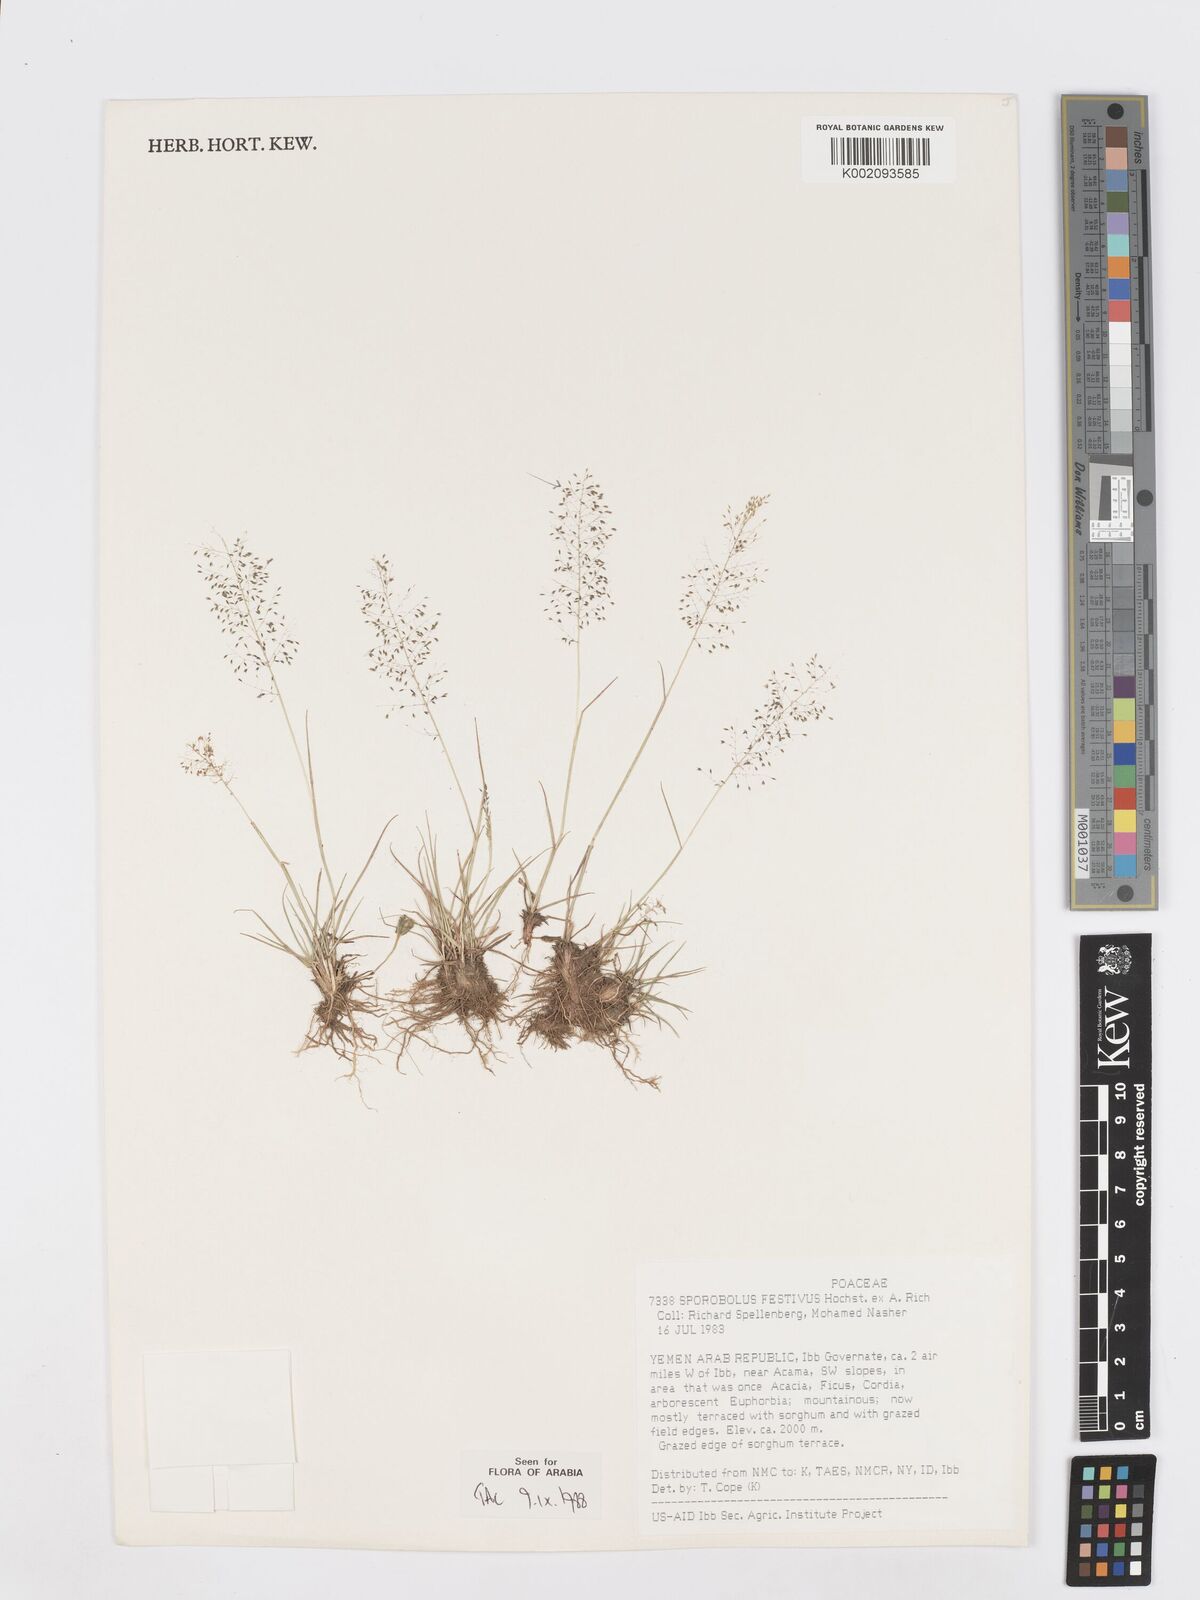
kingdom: Plantae
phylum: Tracheophyta
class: Liliopsida
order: Poales
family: Poaceae
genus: Sporobolus
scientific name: Sporobolus festivus
